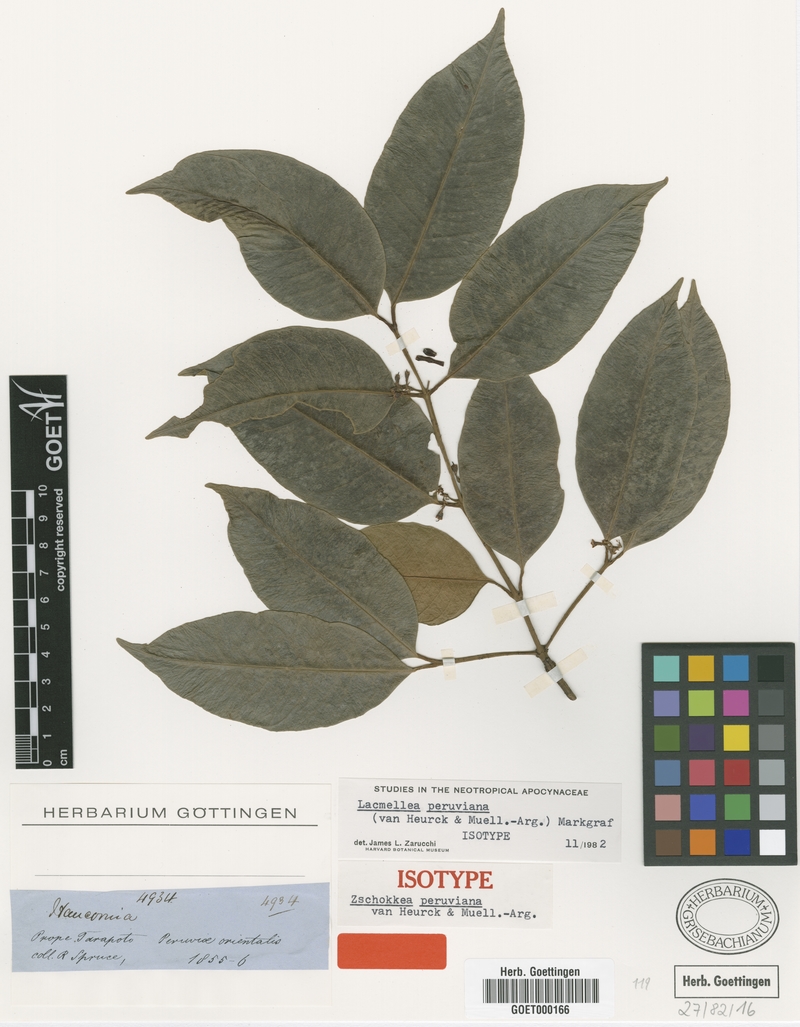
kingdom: Plantae
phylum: Tracheophyta
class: Magnoliopsida
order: Gentianales
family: Apocynaceae
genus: Lacmellea
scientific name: Lacmellea arborescens
